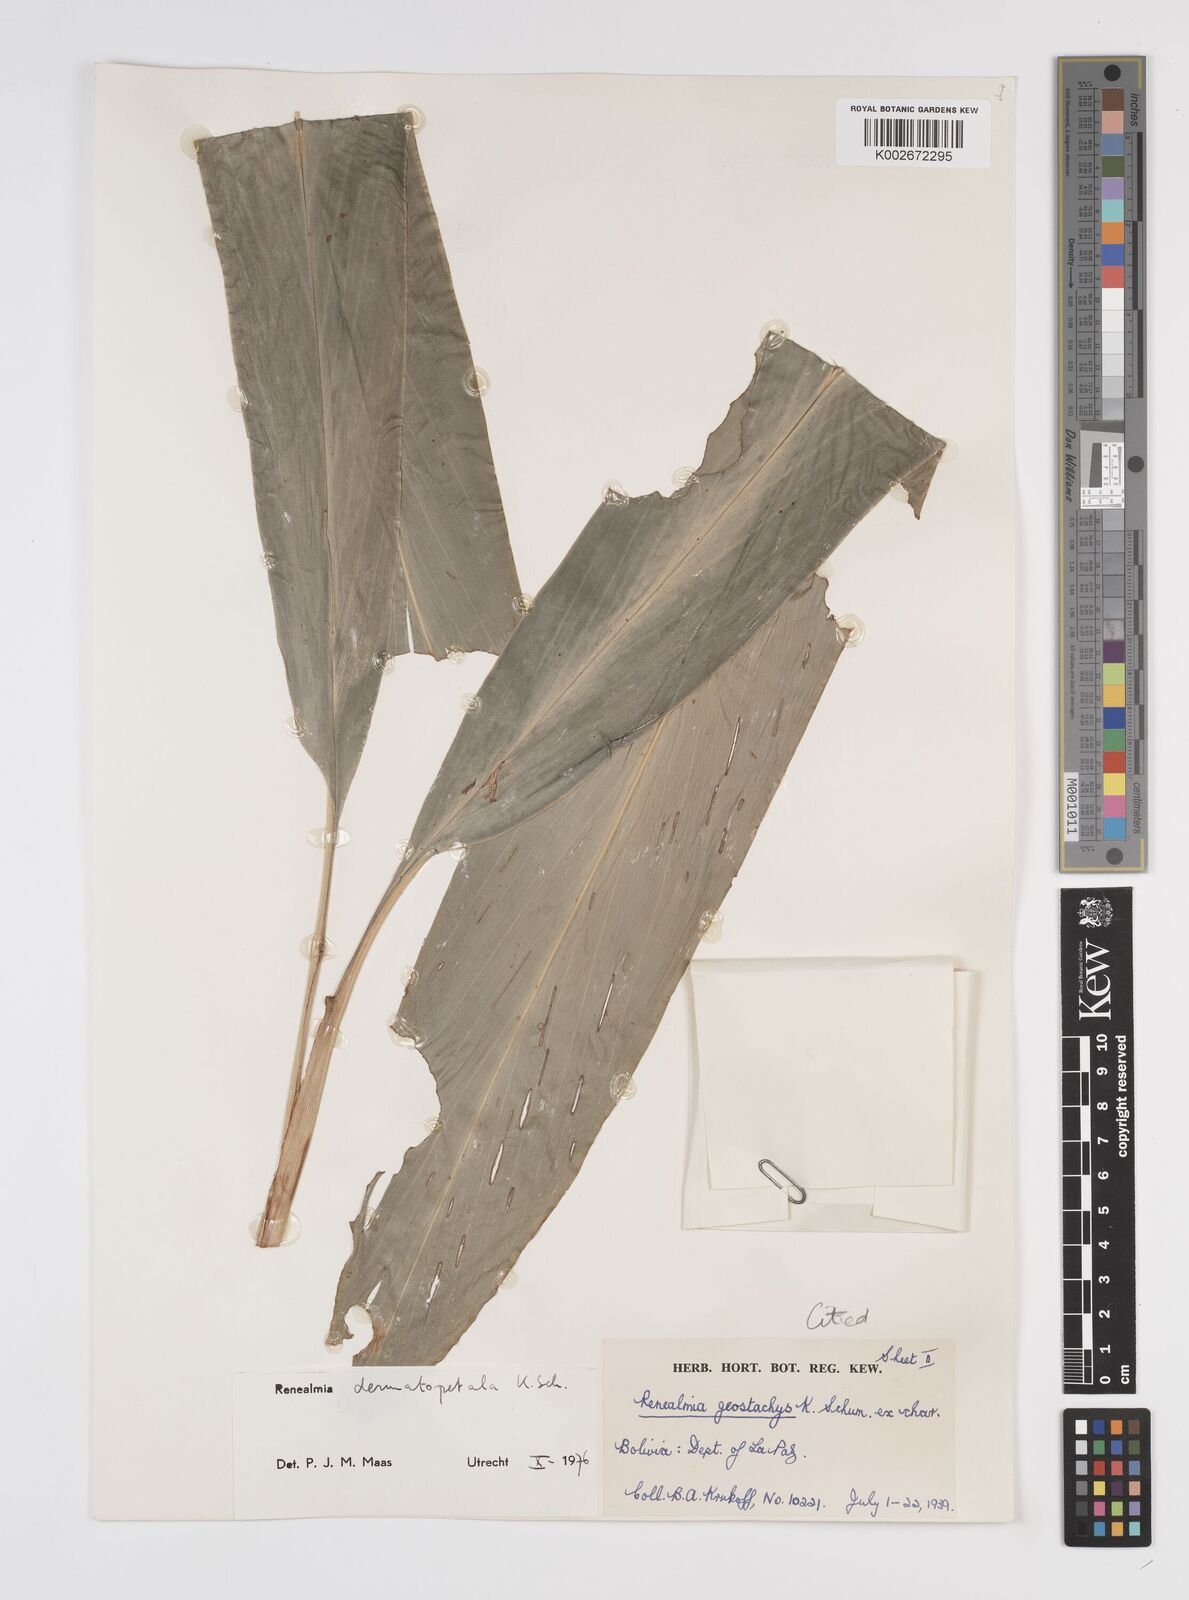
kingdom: Plantae
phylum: Tracheophyta
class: Liliopsida
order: Zingiberales
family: Zingiberaceae
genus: Renealmia
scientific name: Renealmia dermatopetala
